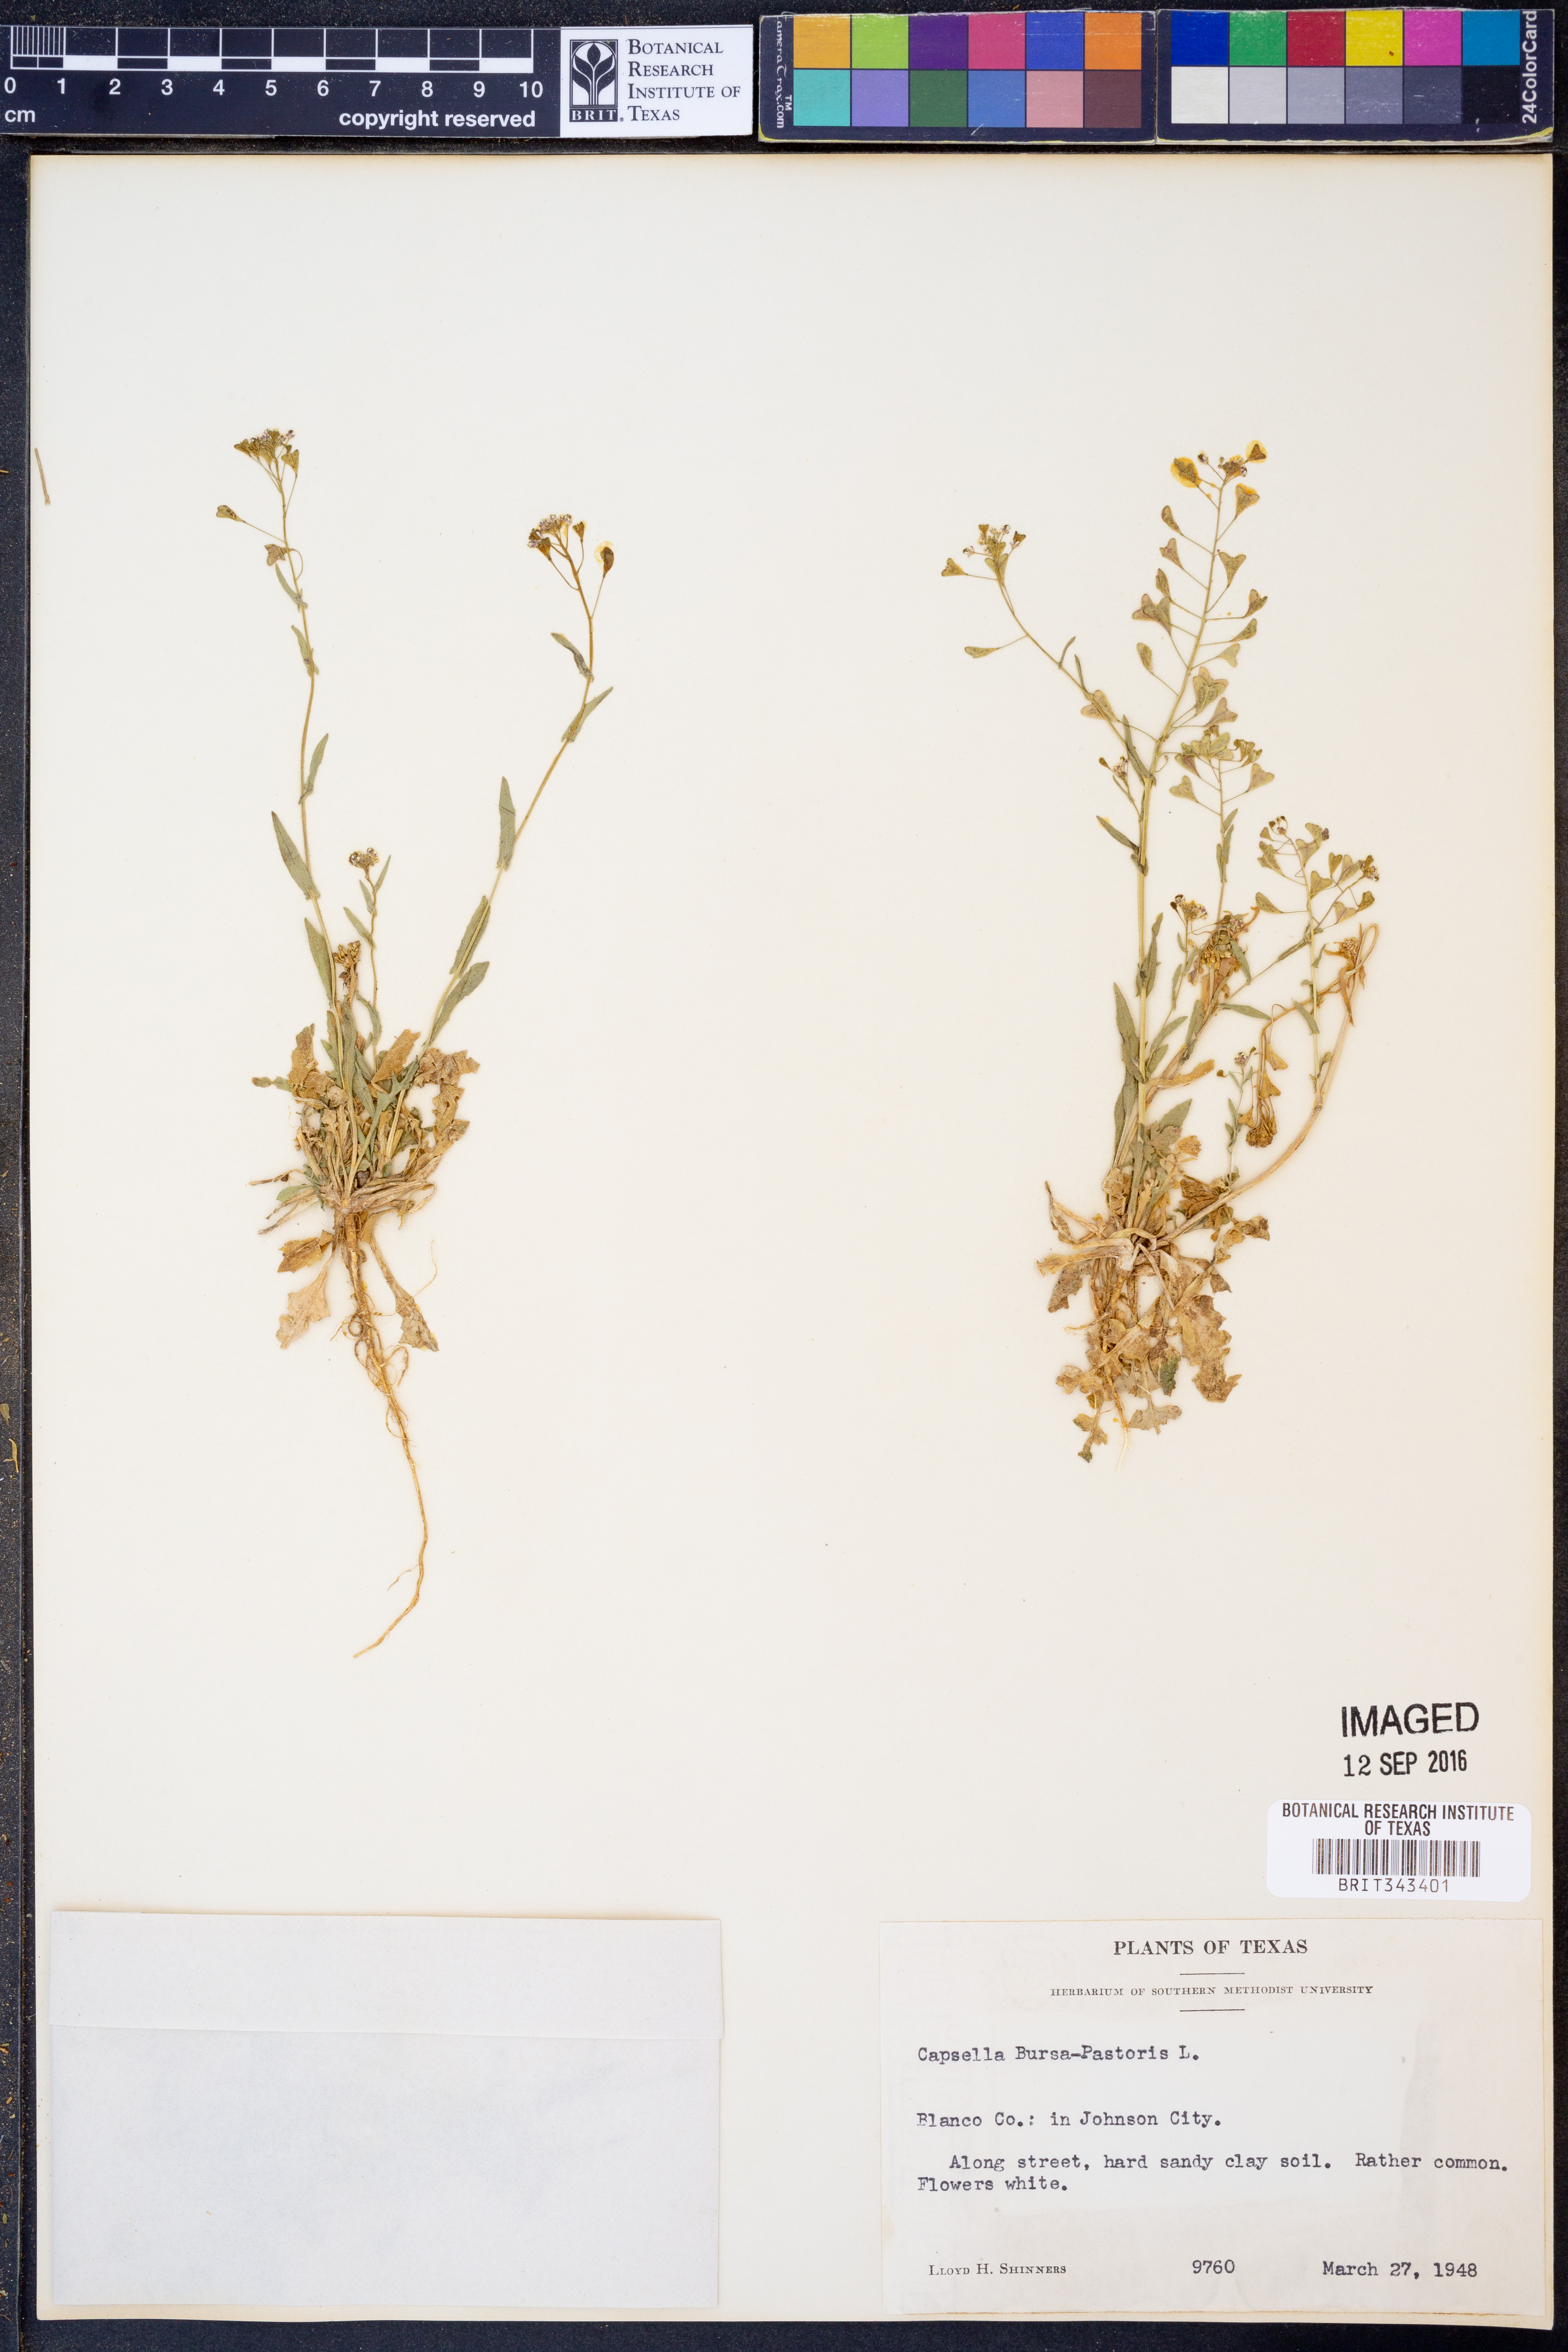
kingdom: Plantae
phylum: Tracheophyta
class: Magnoliopsida
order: Brassicales
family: Brassicaceae
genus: Capsella
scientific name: Capsella bursa-pastoris
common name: Shepherd's purse
